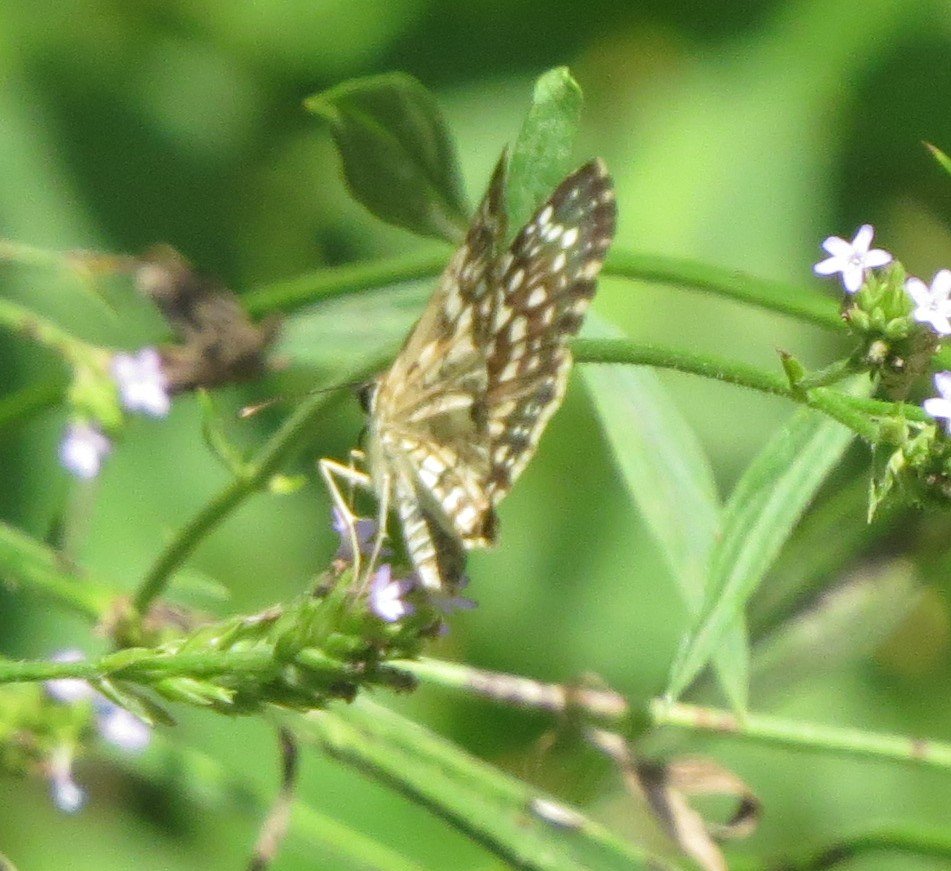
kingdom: Animalia
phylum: Arthropoda
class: Insecta
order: Lepidoptera
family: Hesperiidae
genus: Pyrgus
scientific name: Pyrgus communis
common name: White Checkered-Skipper
